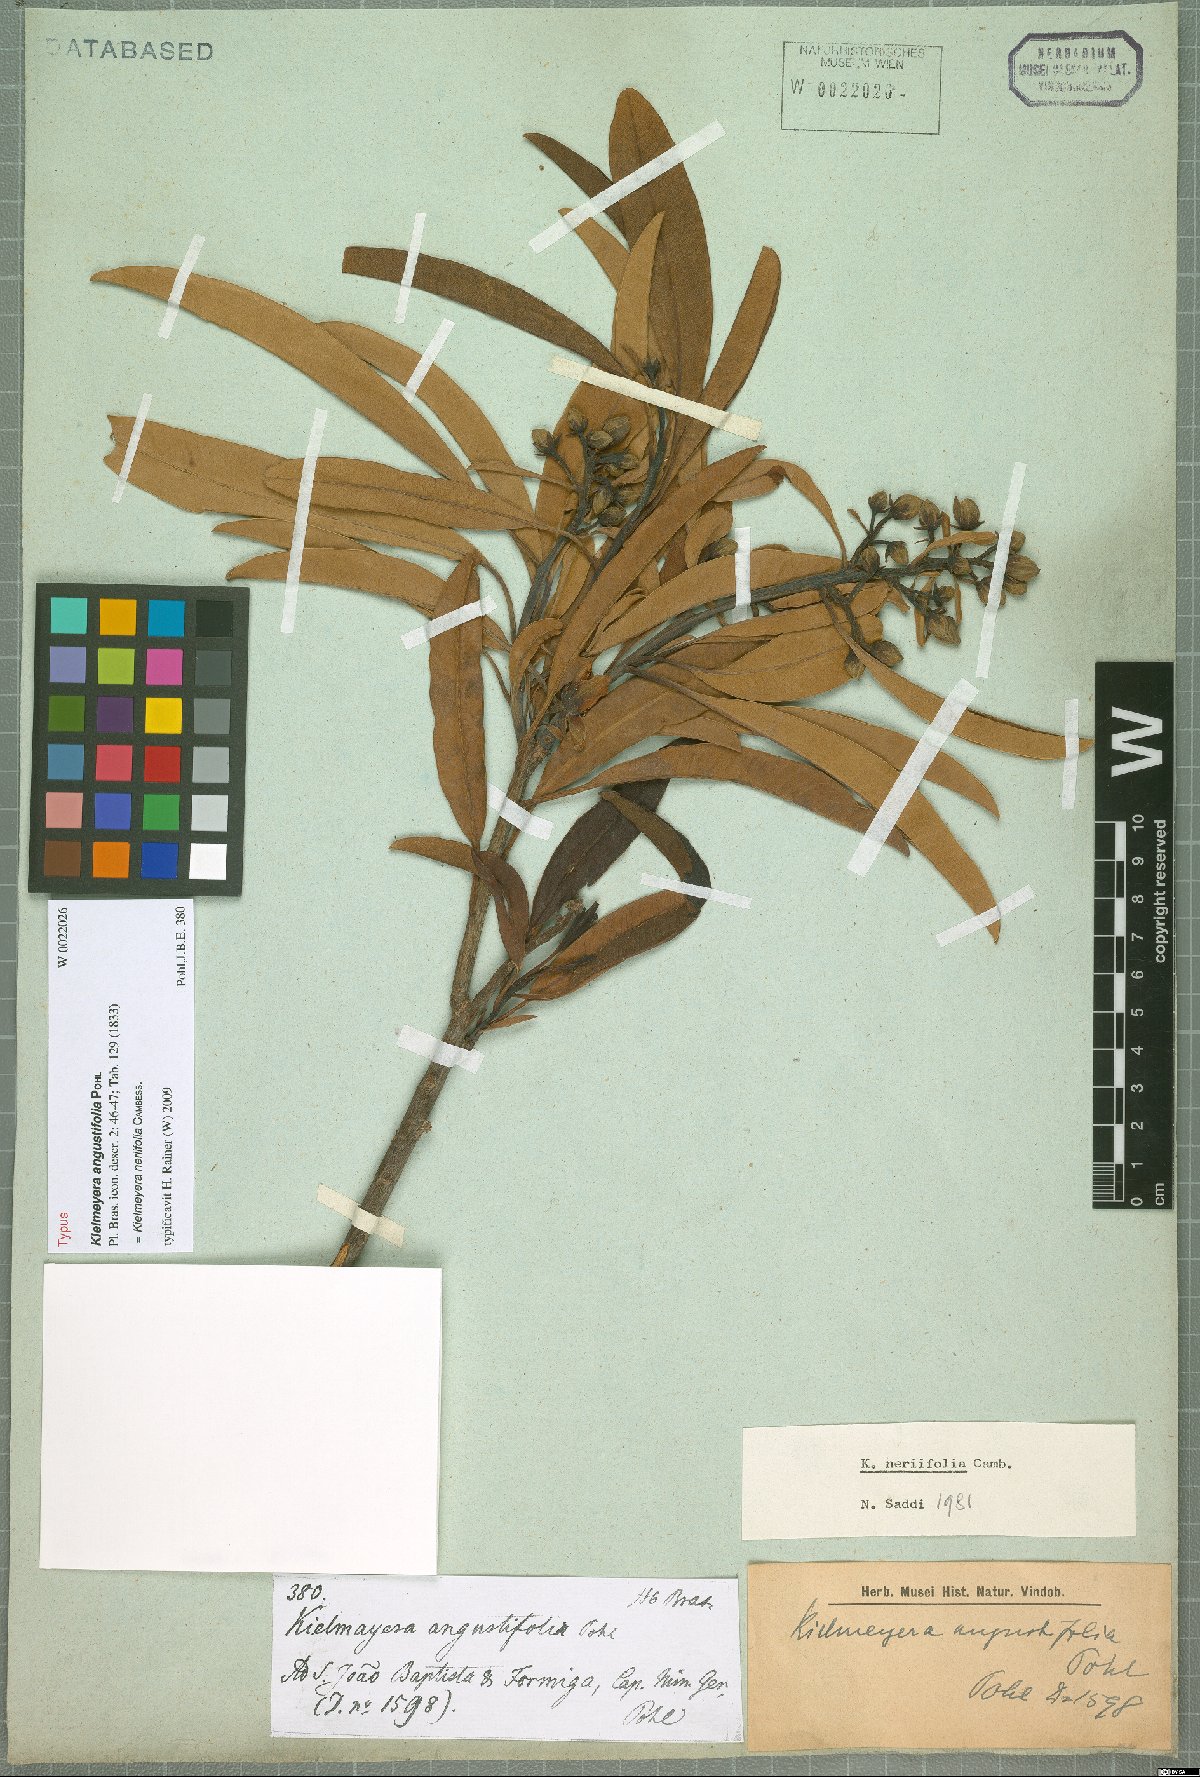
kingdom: Plantae
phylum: Tracheophyta
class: Magnoliopsida
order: Malpighiales
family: Calophyllaceae
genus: Kielmeyera
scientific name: Kielmeyera neriifolia
